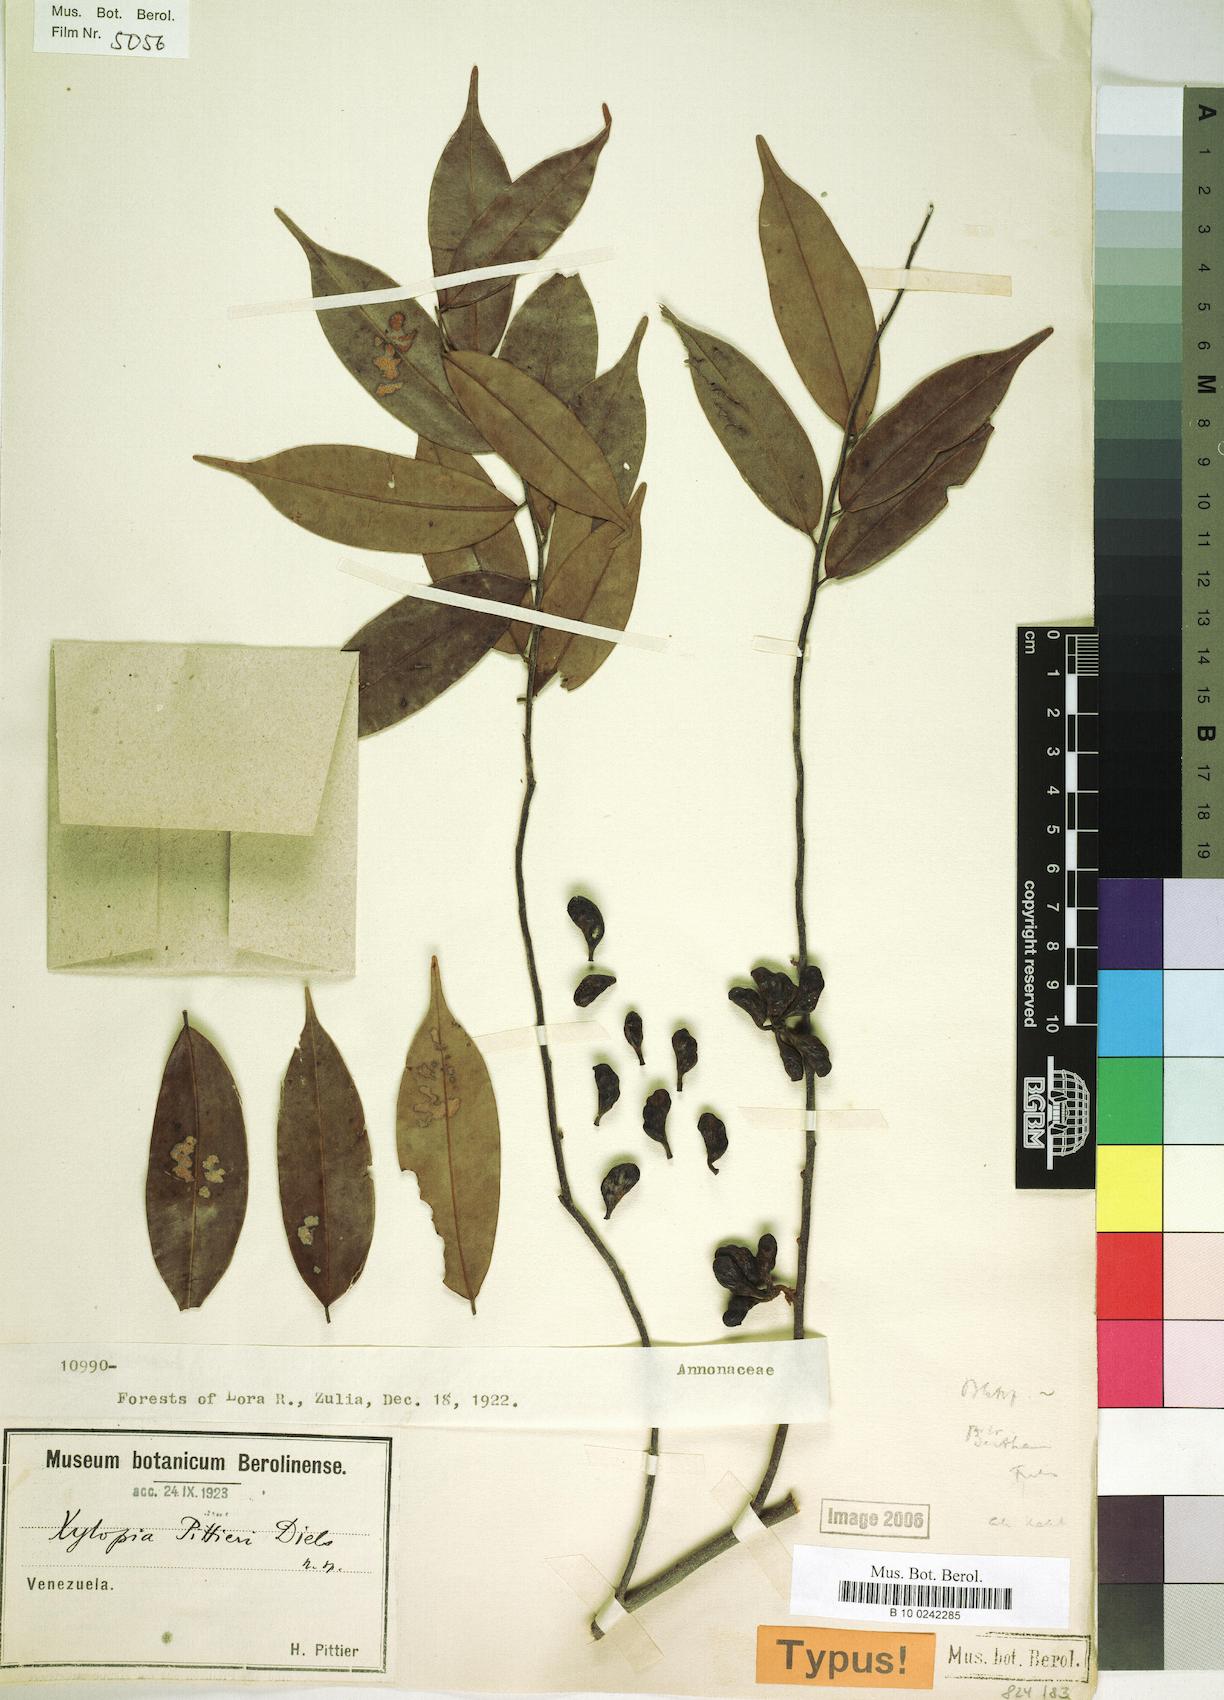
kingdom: Plantae
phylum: Tracheophyta
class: Magnoliopsida
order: Magnoliales
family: Annonaceae
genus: Xylopia
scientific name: Xylopia pittieri
